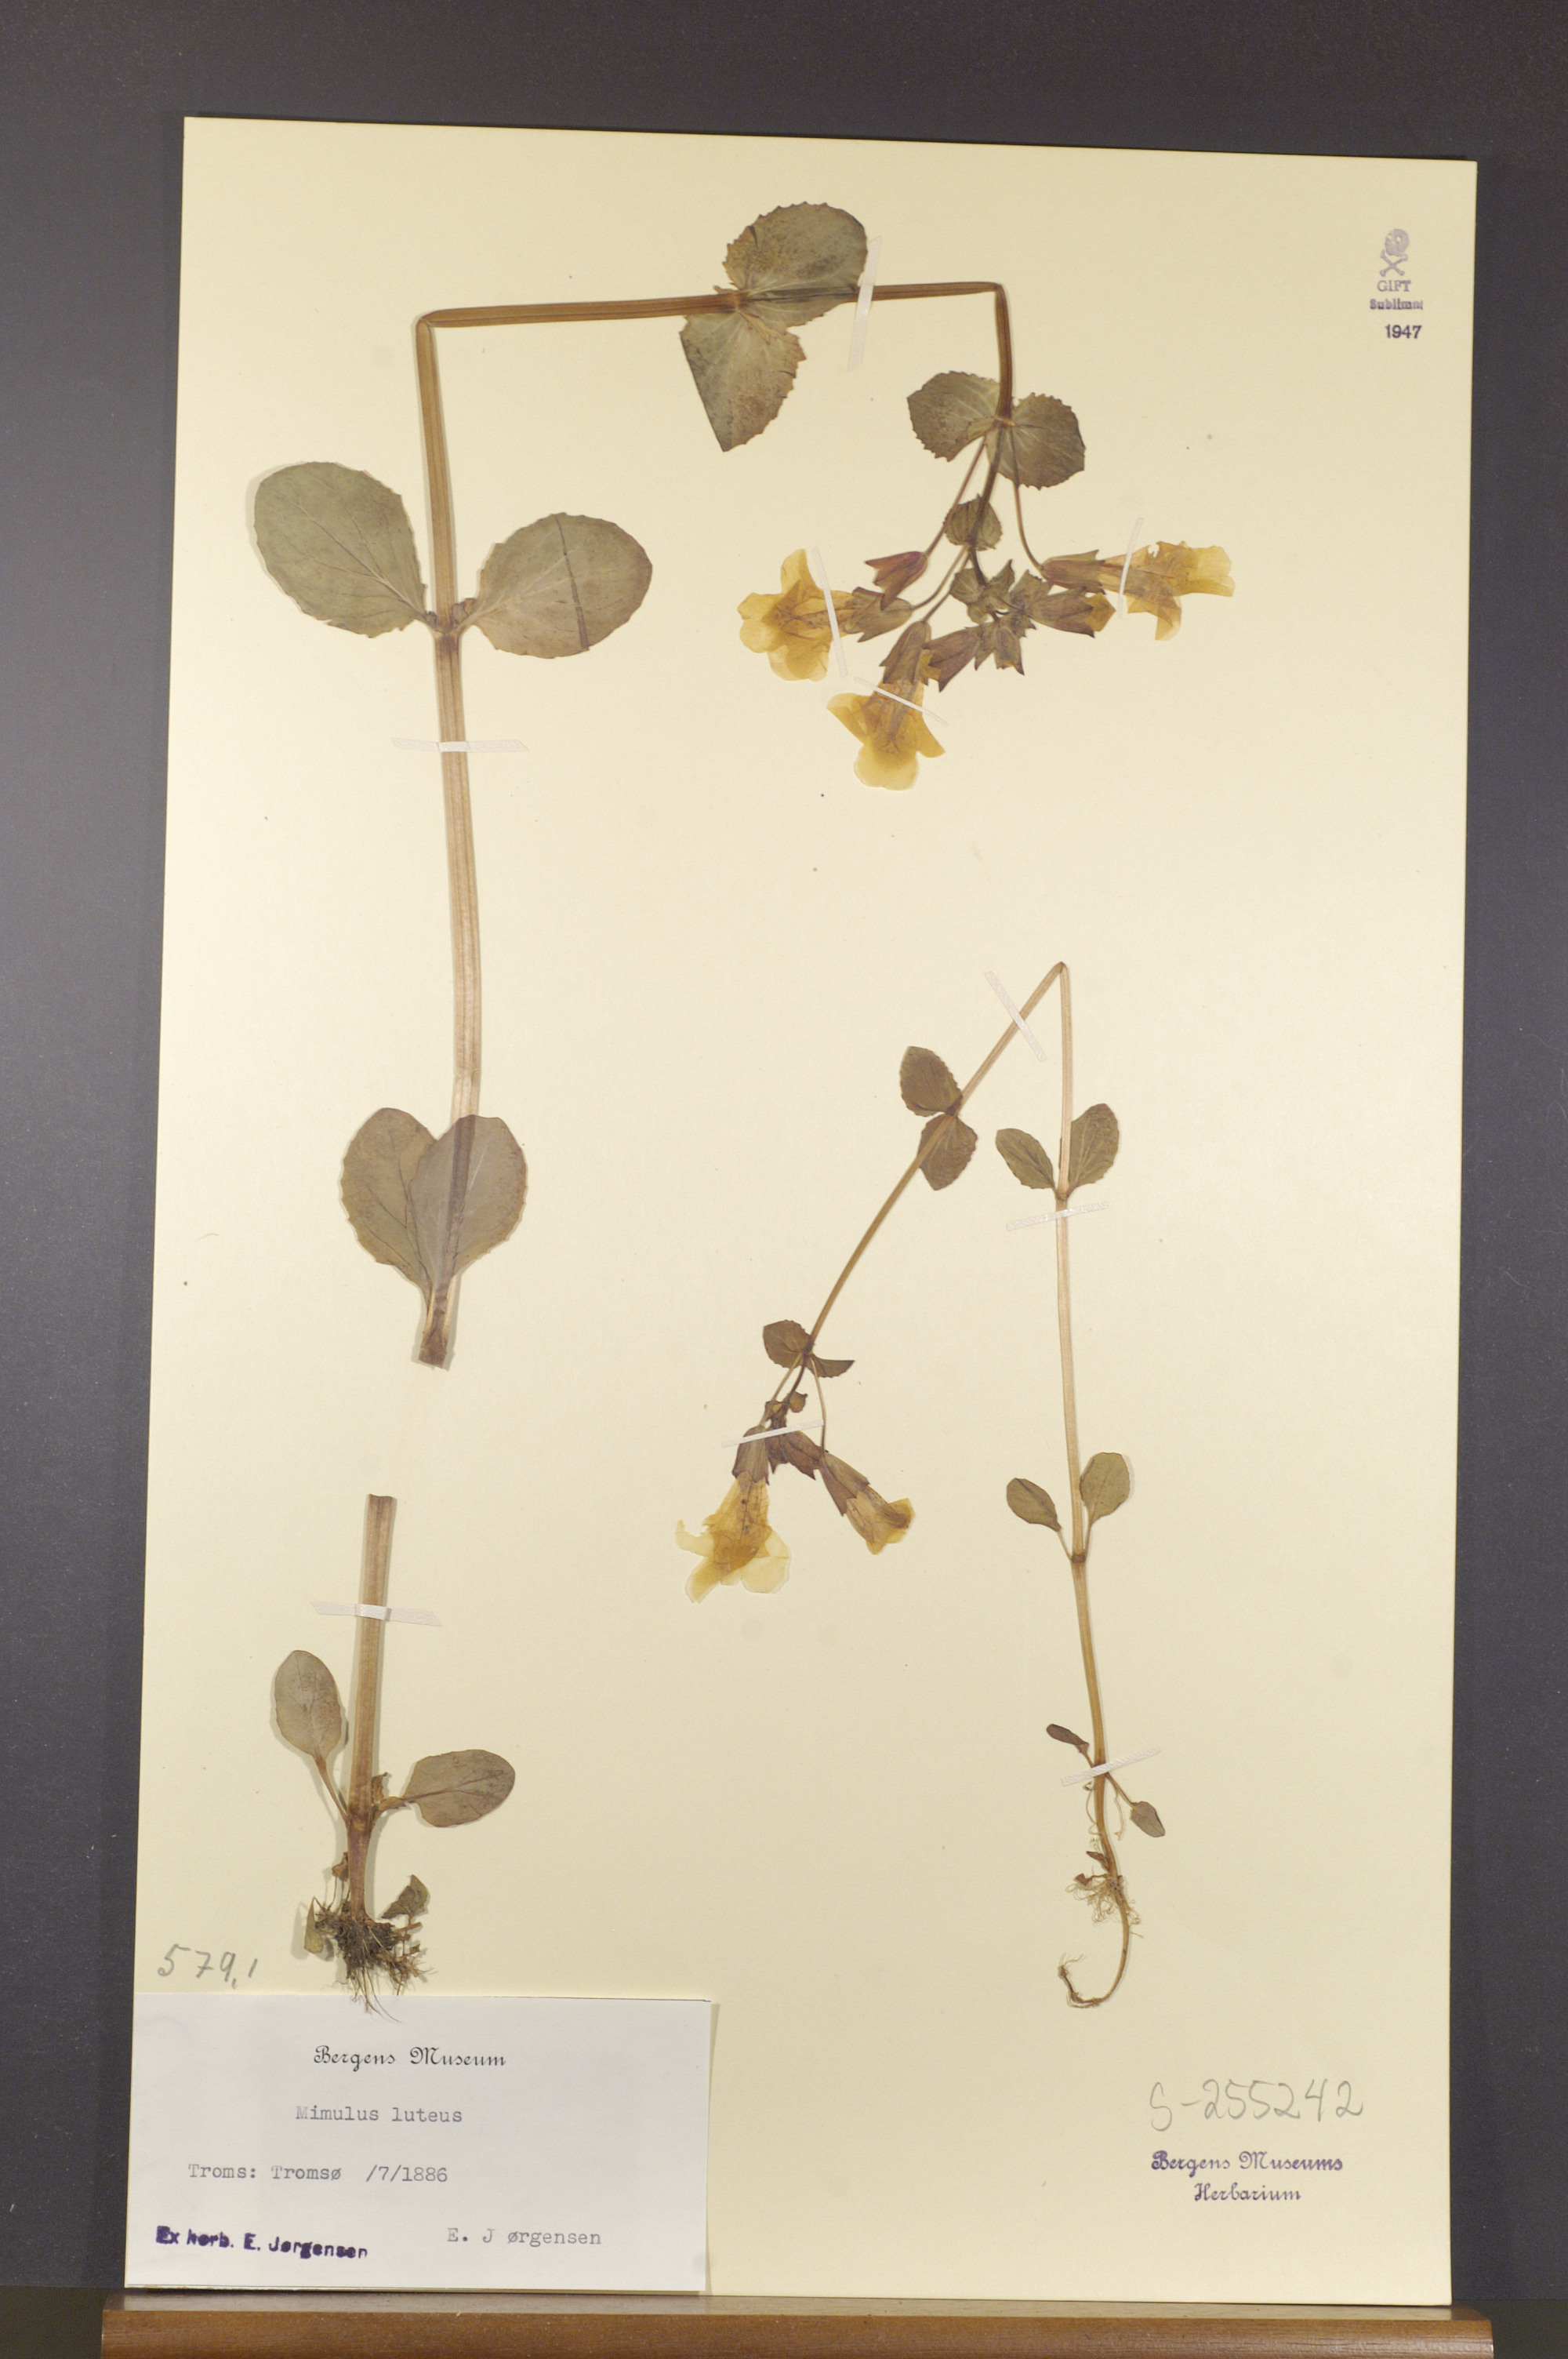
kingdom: Plantae
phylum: Tracheophyta
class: Magnoliopsida
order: Lamiales
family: Phrymaceae
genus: Erythranthe
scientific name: Erythranthe lutea
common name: Yellow monkey-flower
